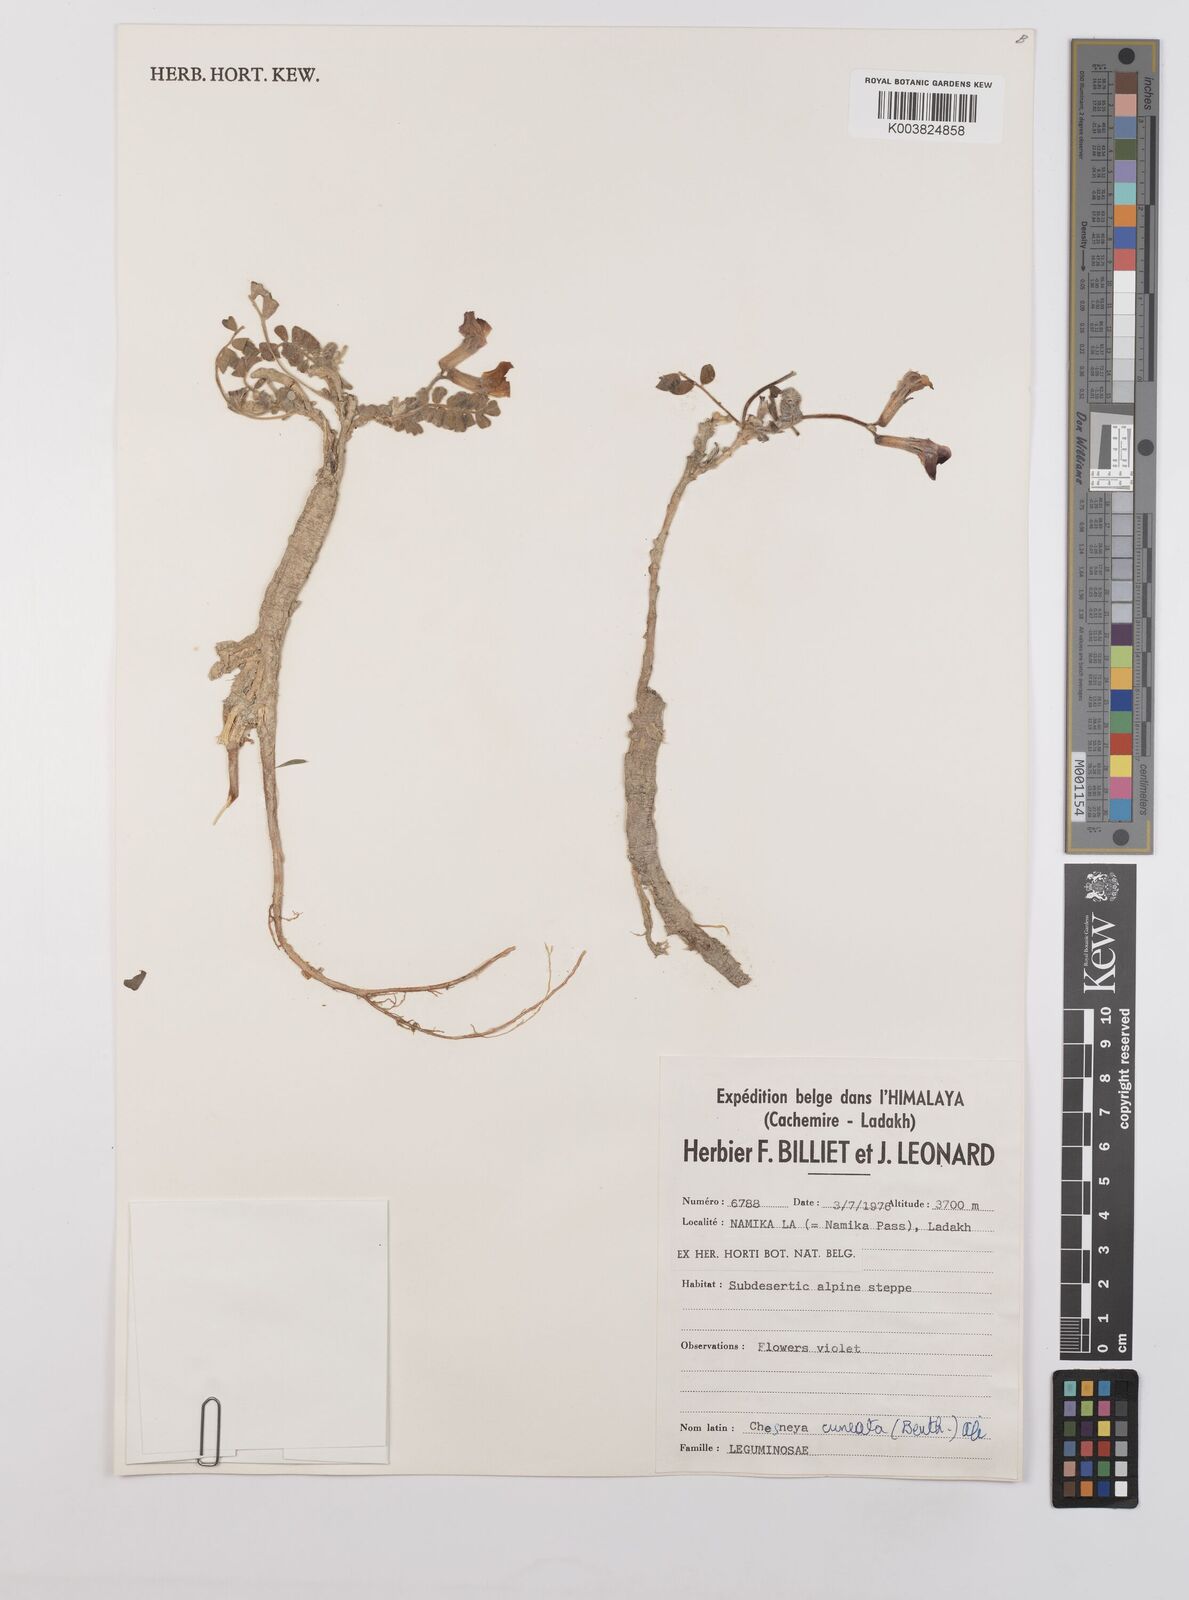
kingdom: Plantae
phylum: Tracheophyta
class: Magnoliopsida
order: Fabales
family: Fabaceae
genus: Chesneya
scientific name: Chesneya cuneata
